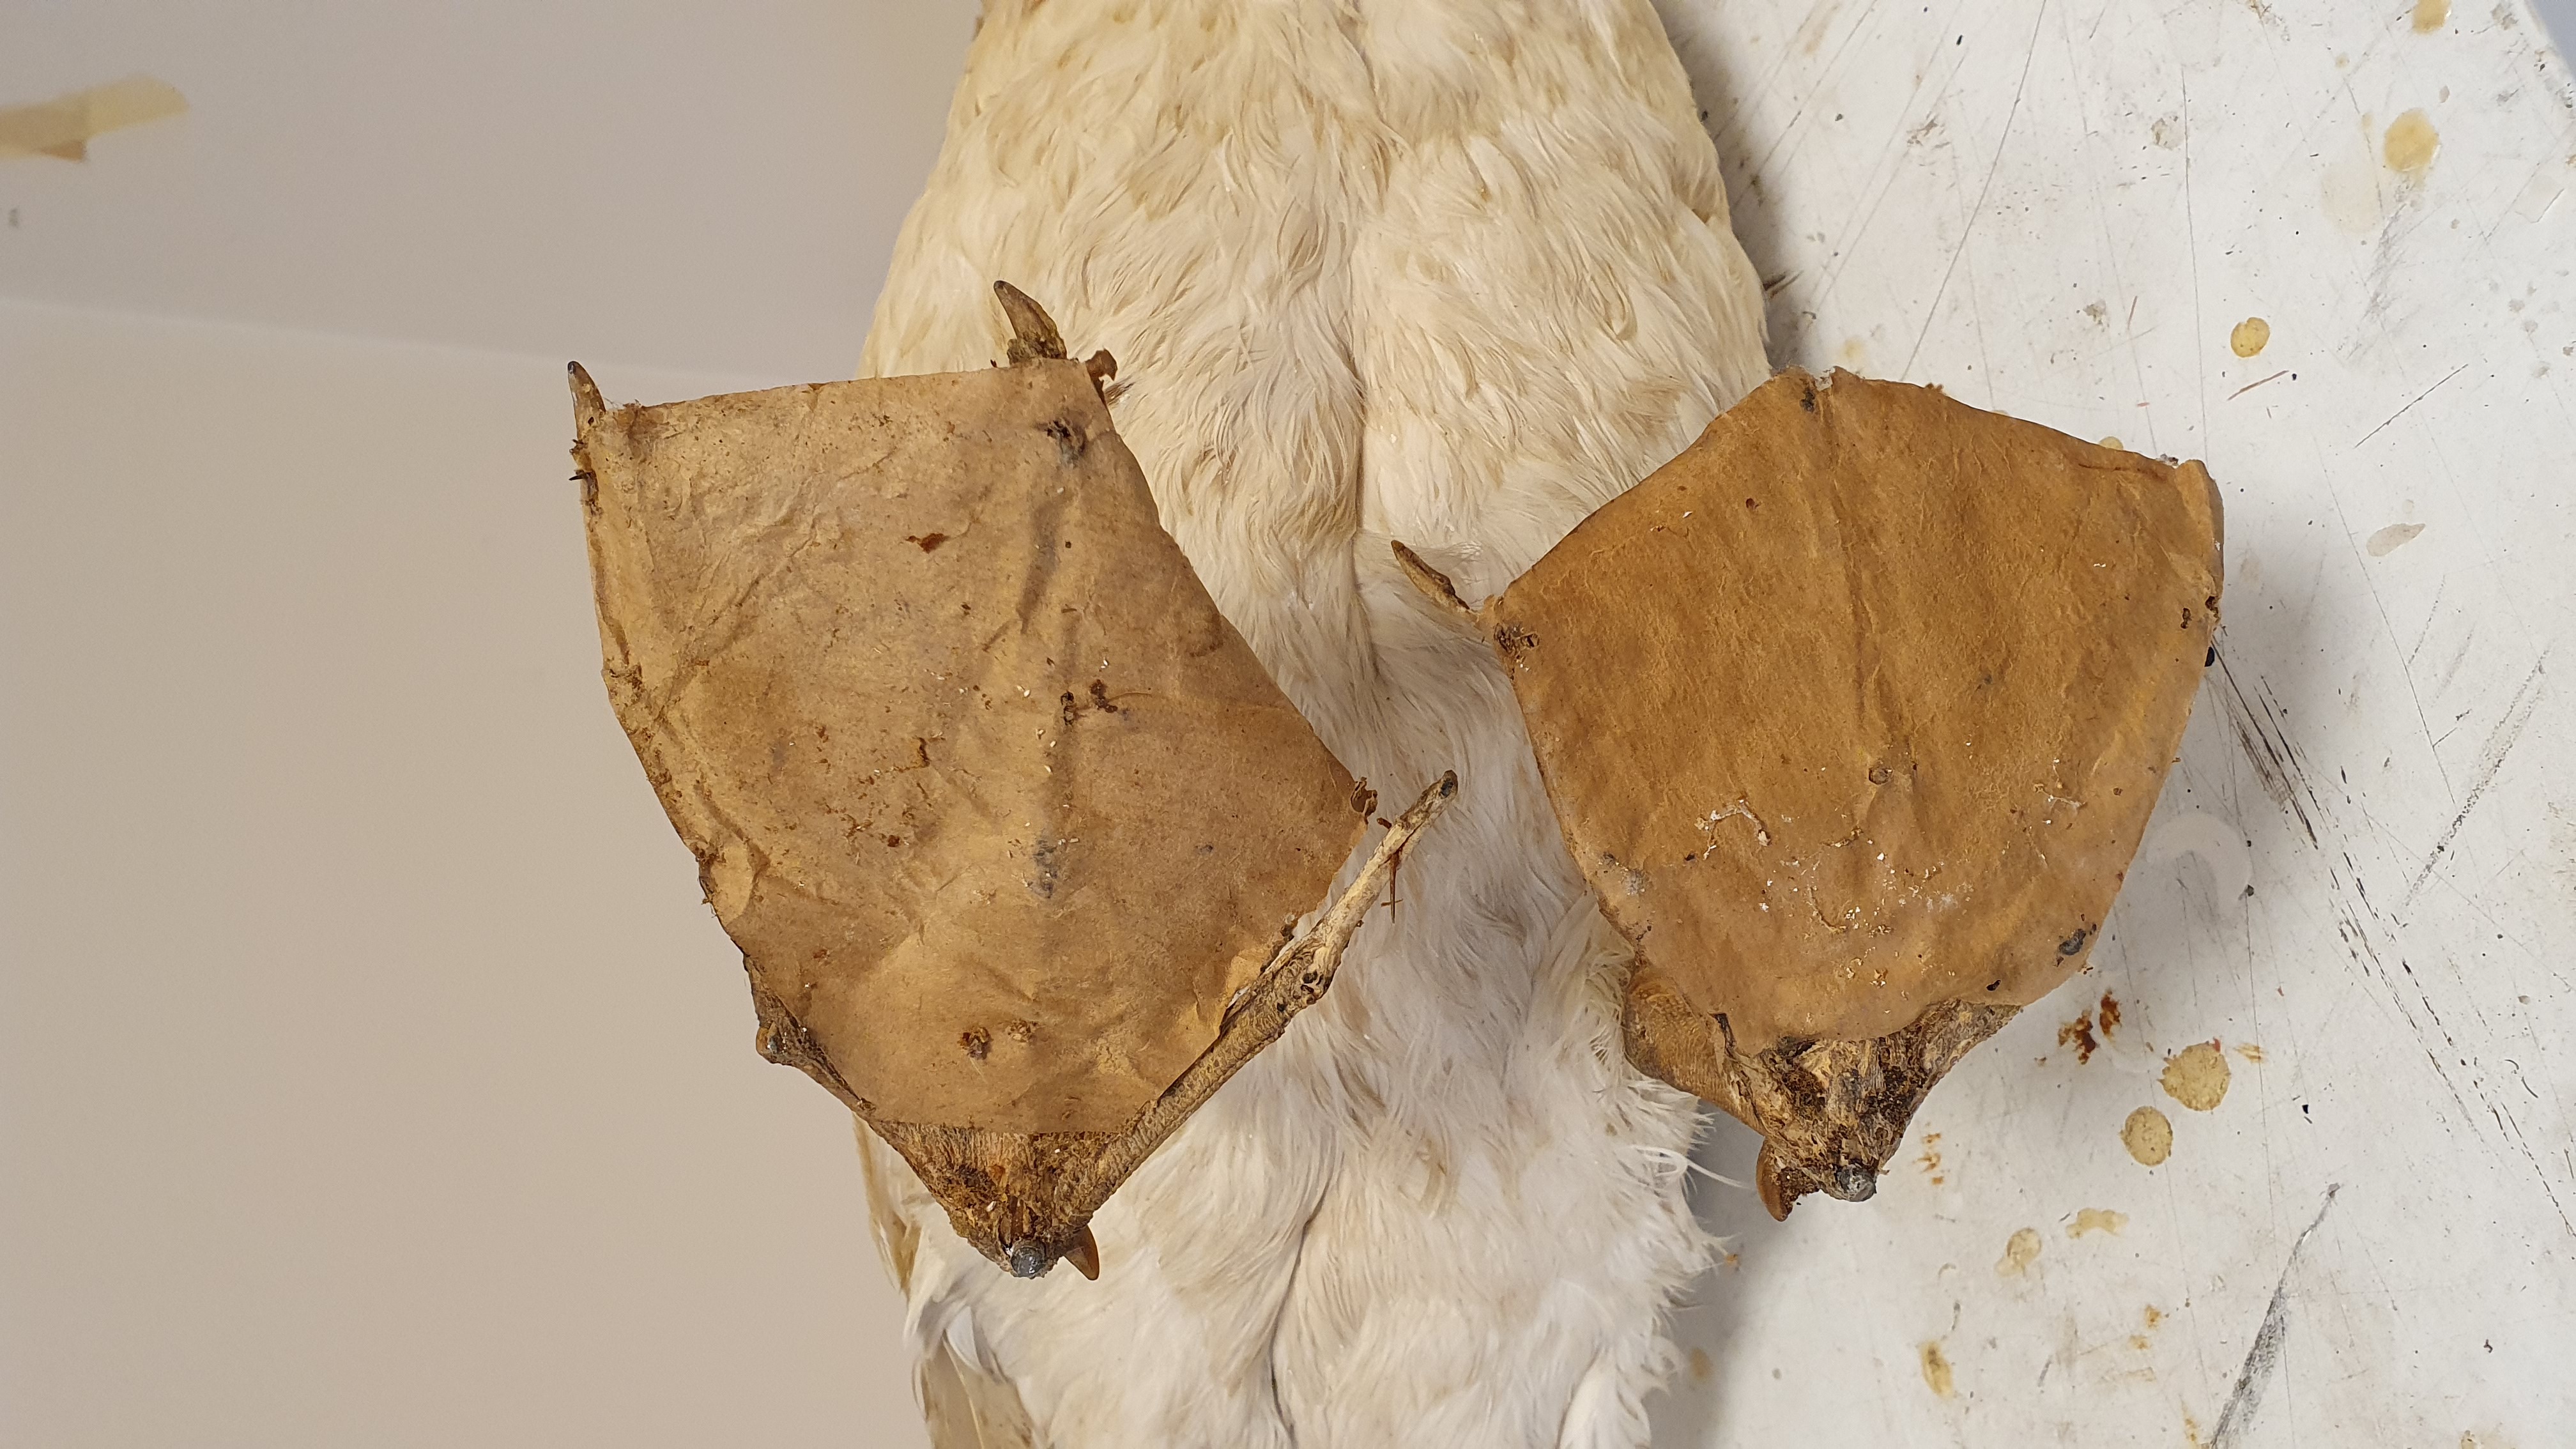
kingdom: Animalia
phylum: Chordata
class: Aves
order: Procellariiformes
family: Procellariidae
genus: Macronectes
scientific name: Macronectes giganteus
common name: Southern giant petrel
